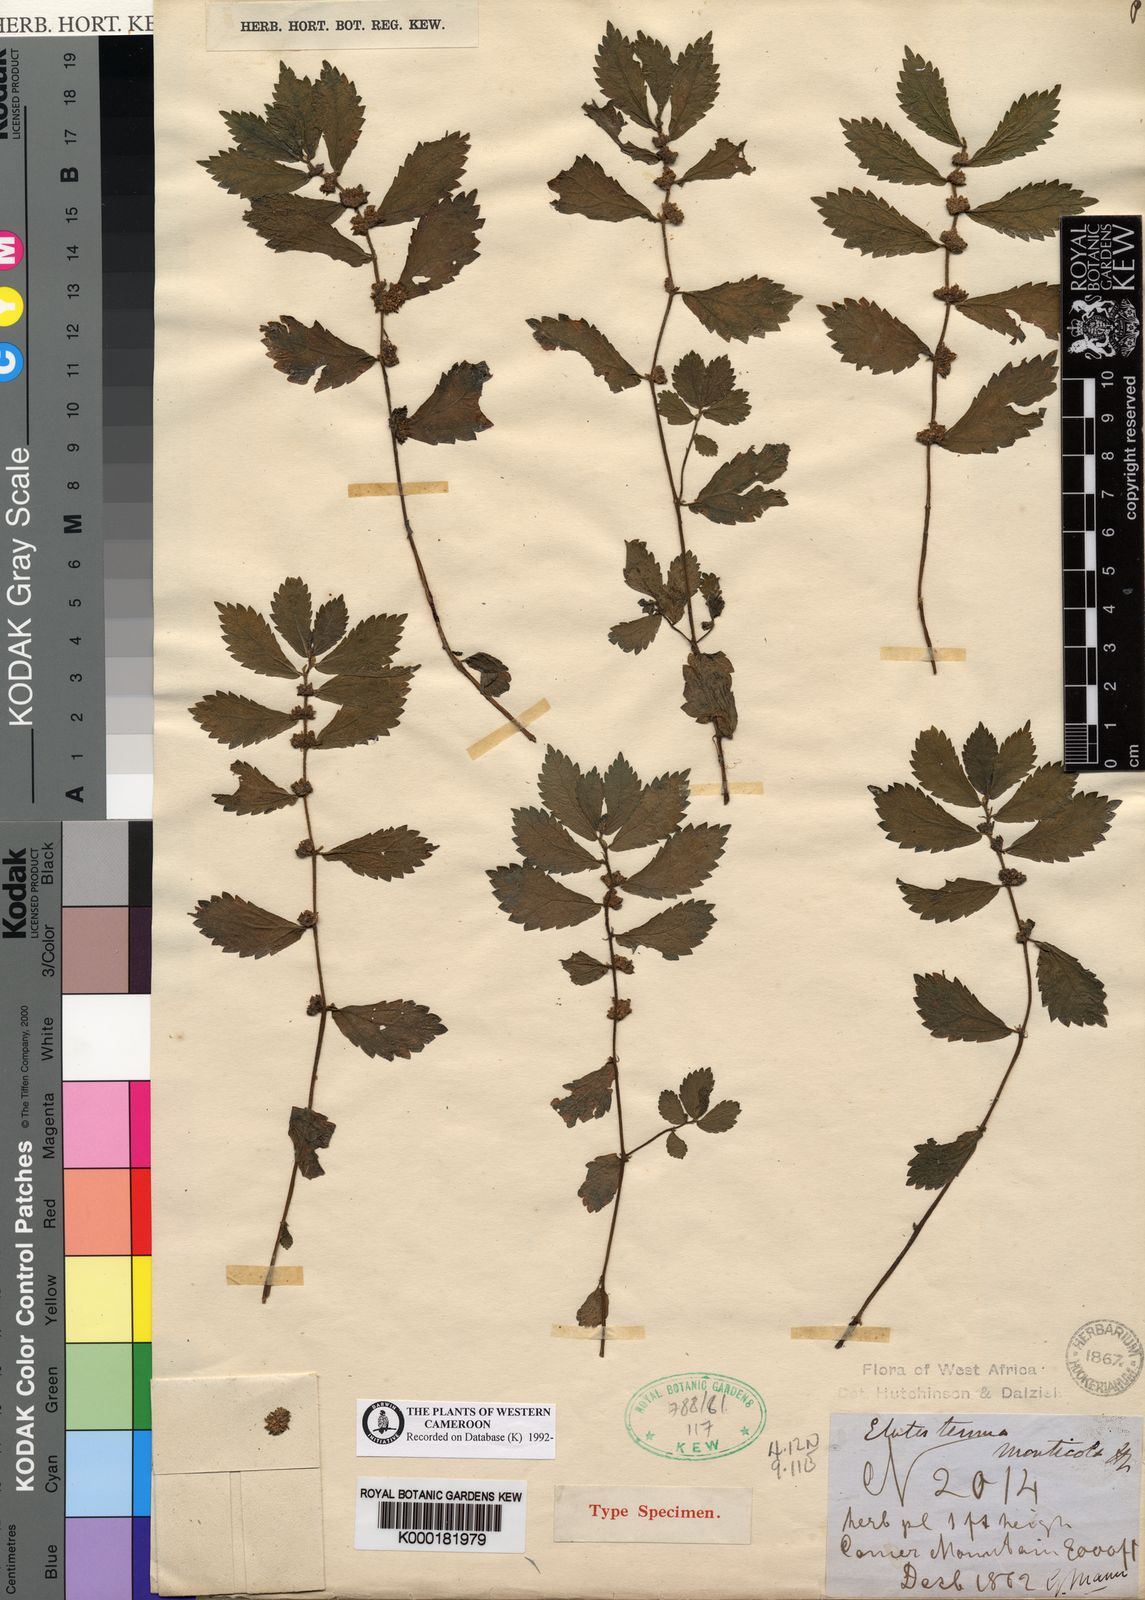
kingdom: Plantae
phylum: Tracheophyta
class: Magnoliopsida
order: Rosales
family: Urticaceae
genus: Elatostema
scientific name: Elatostema monticola
